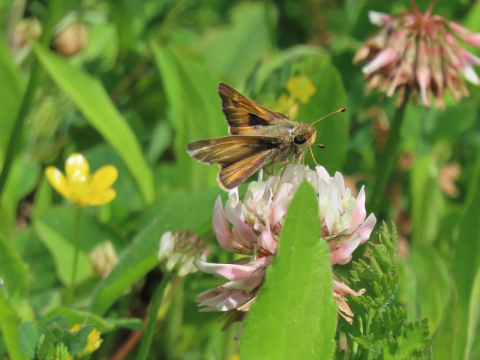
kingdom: Animalia
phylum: Arthropoda
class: Insecta
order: Lepidoptera
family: Hesperiidae
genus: Atalopedes
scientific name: Atalopedes campestris
